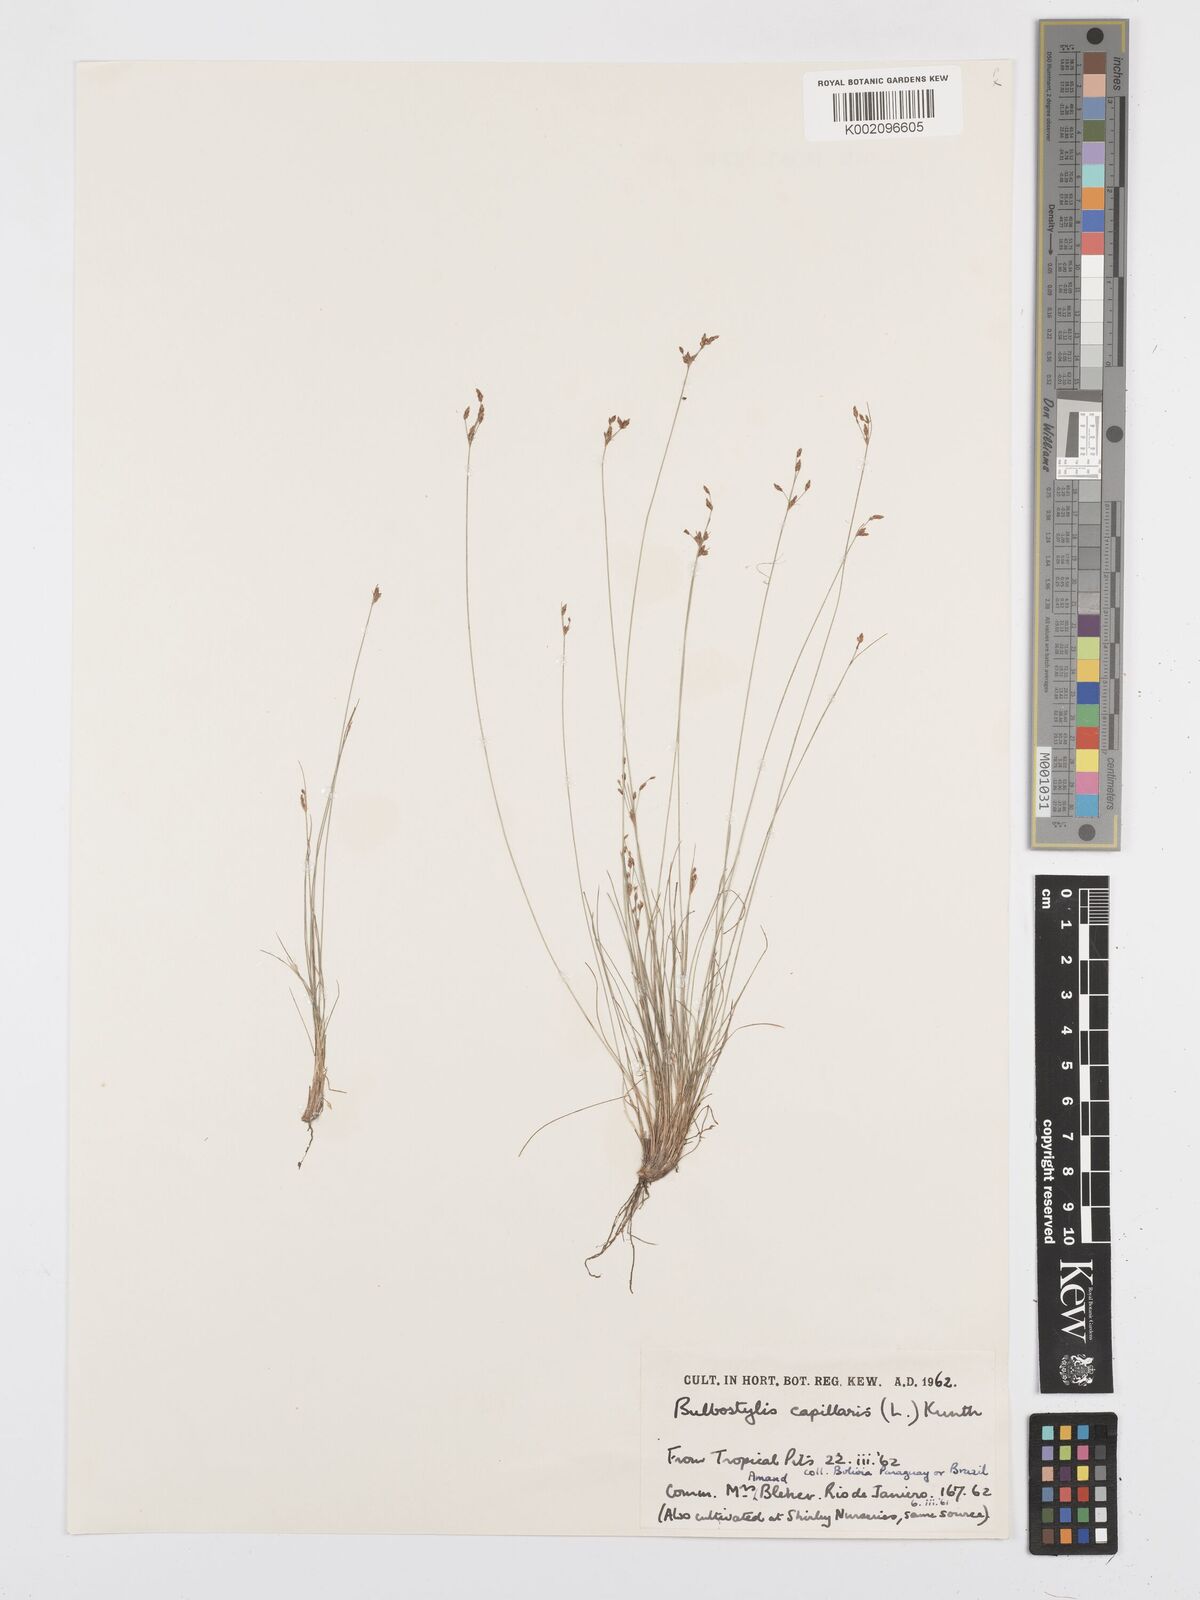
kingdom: Plantae
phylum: Tracheophyta
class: Liliopsida
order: Poales
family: Cyperaceae
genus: Bulbostylis
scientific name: Bulbostylis capillaris
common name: Densetuft hairsedge
